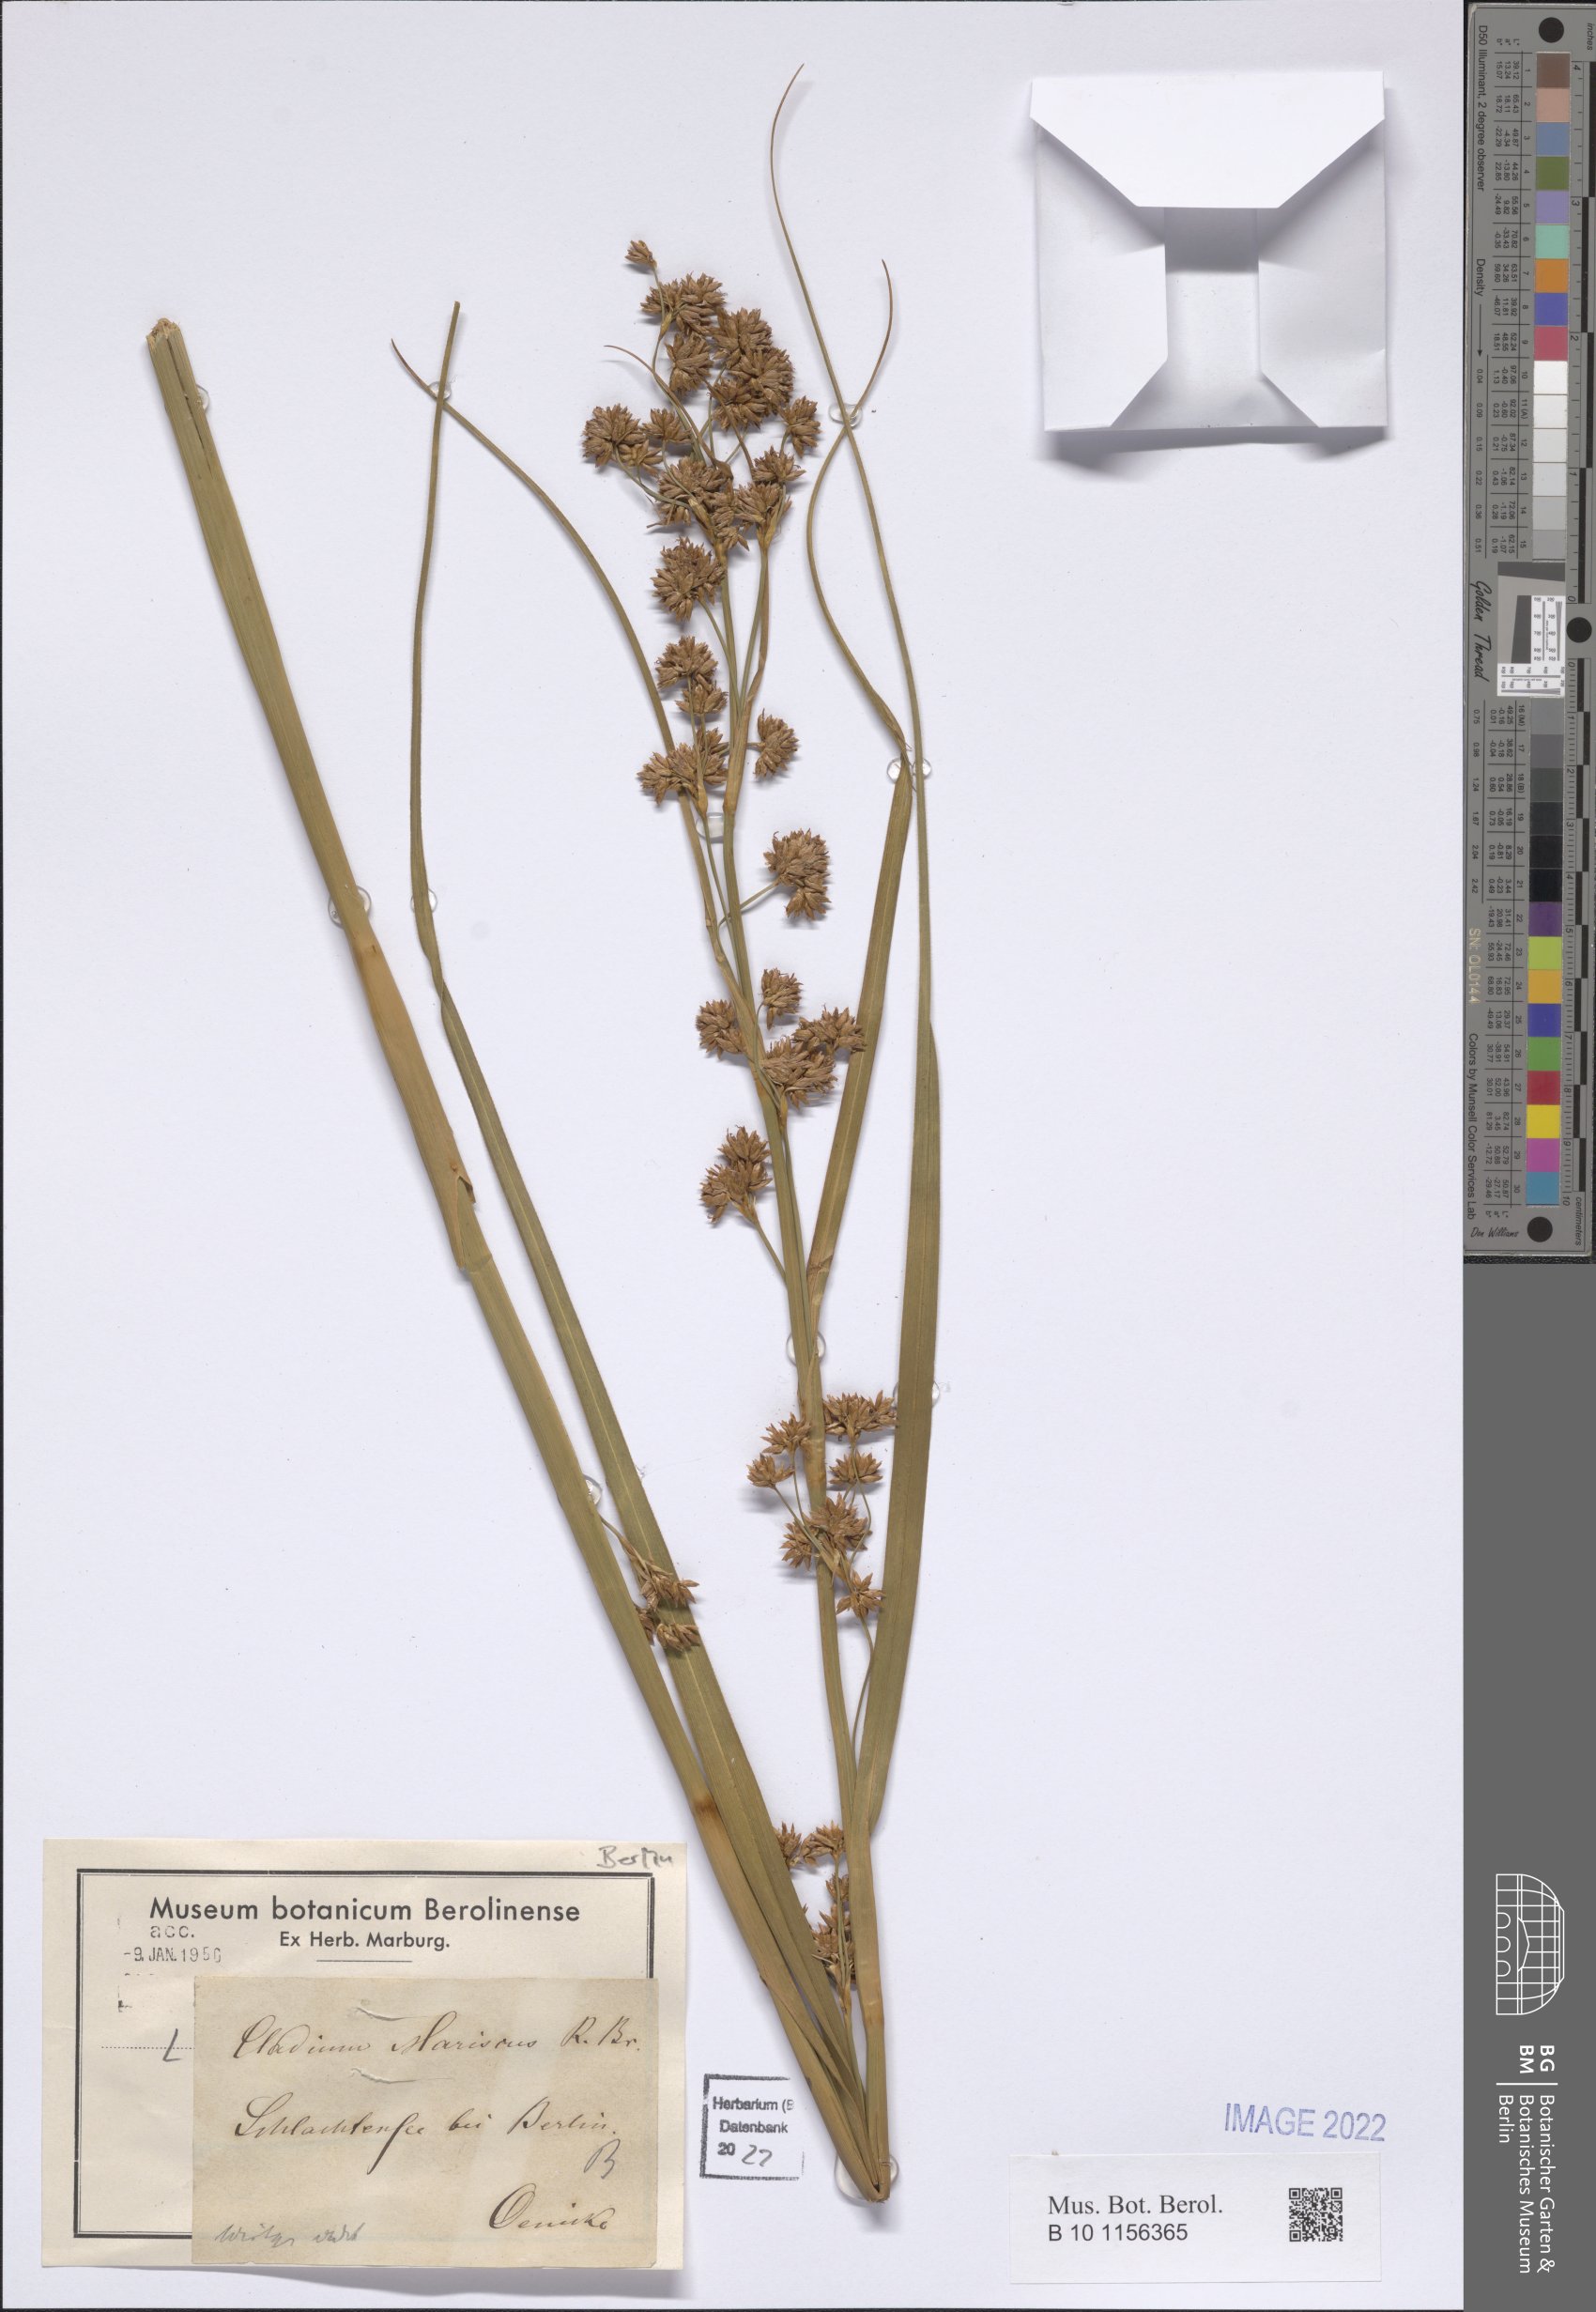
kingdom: Plantae
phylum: Tracheophyta
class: Liliopsida
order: Poales
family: Cyperaceae
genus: Cladium
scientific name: Cladium mariscus
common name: Great fen-sedge
